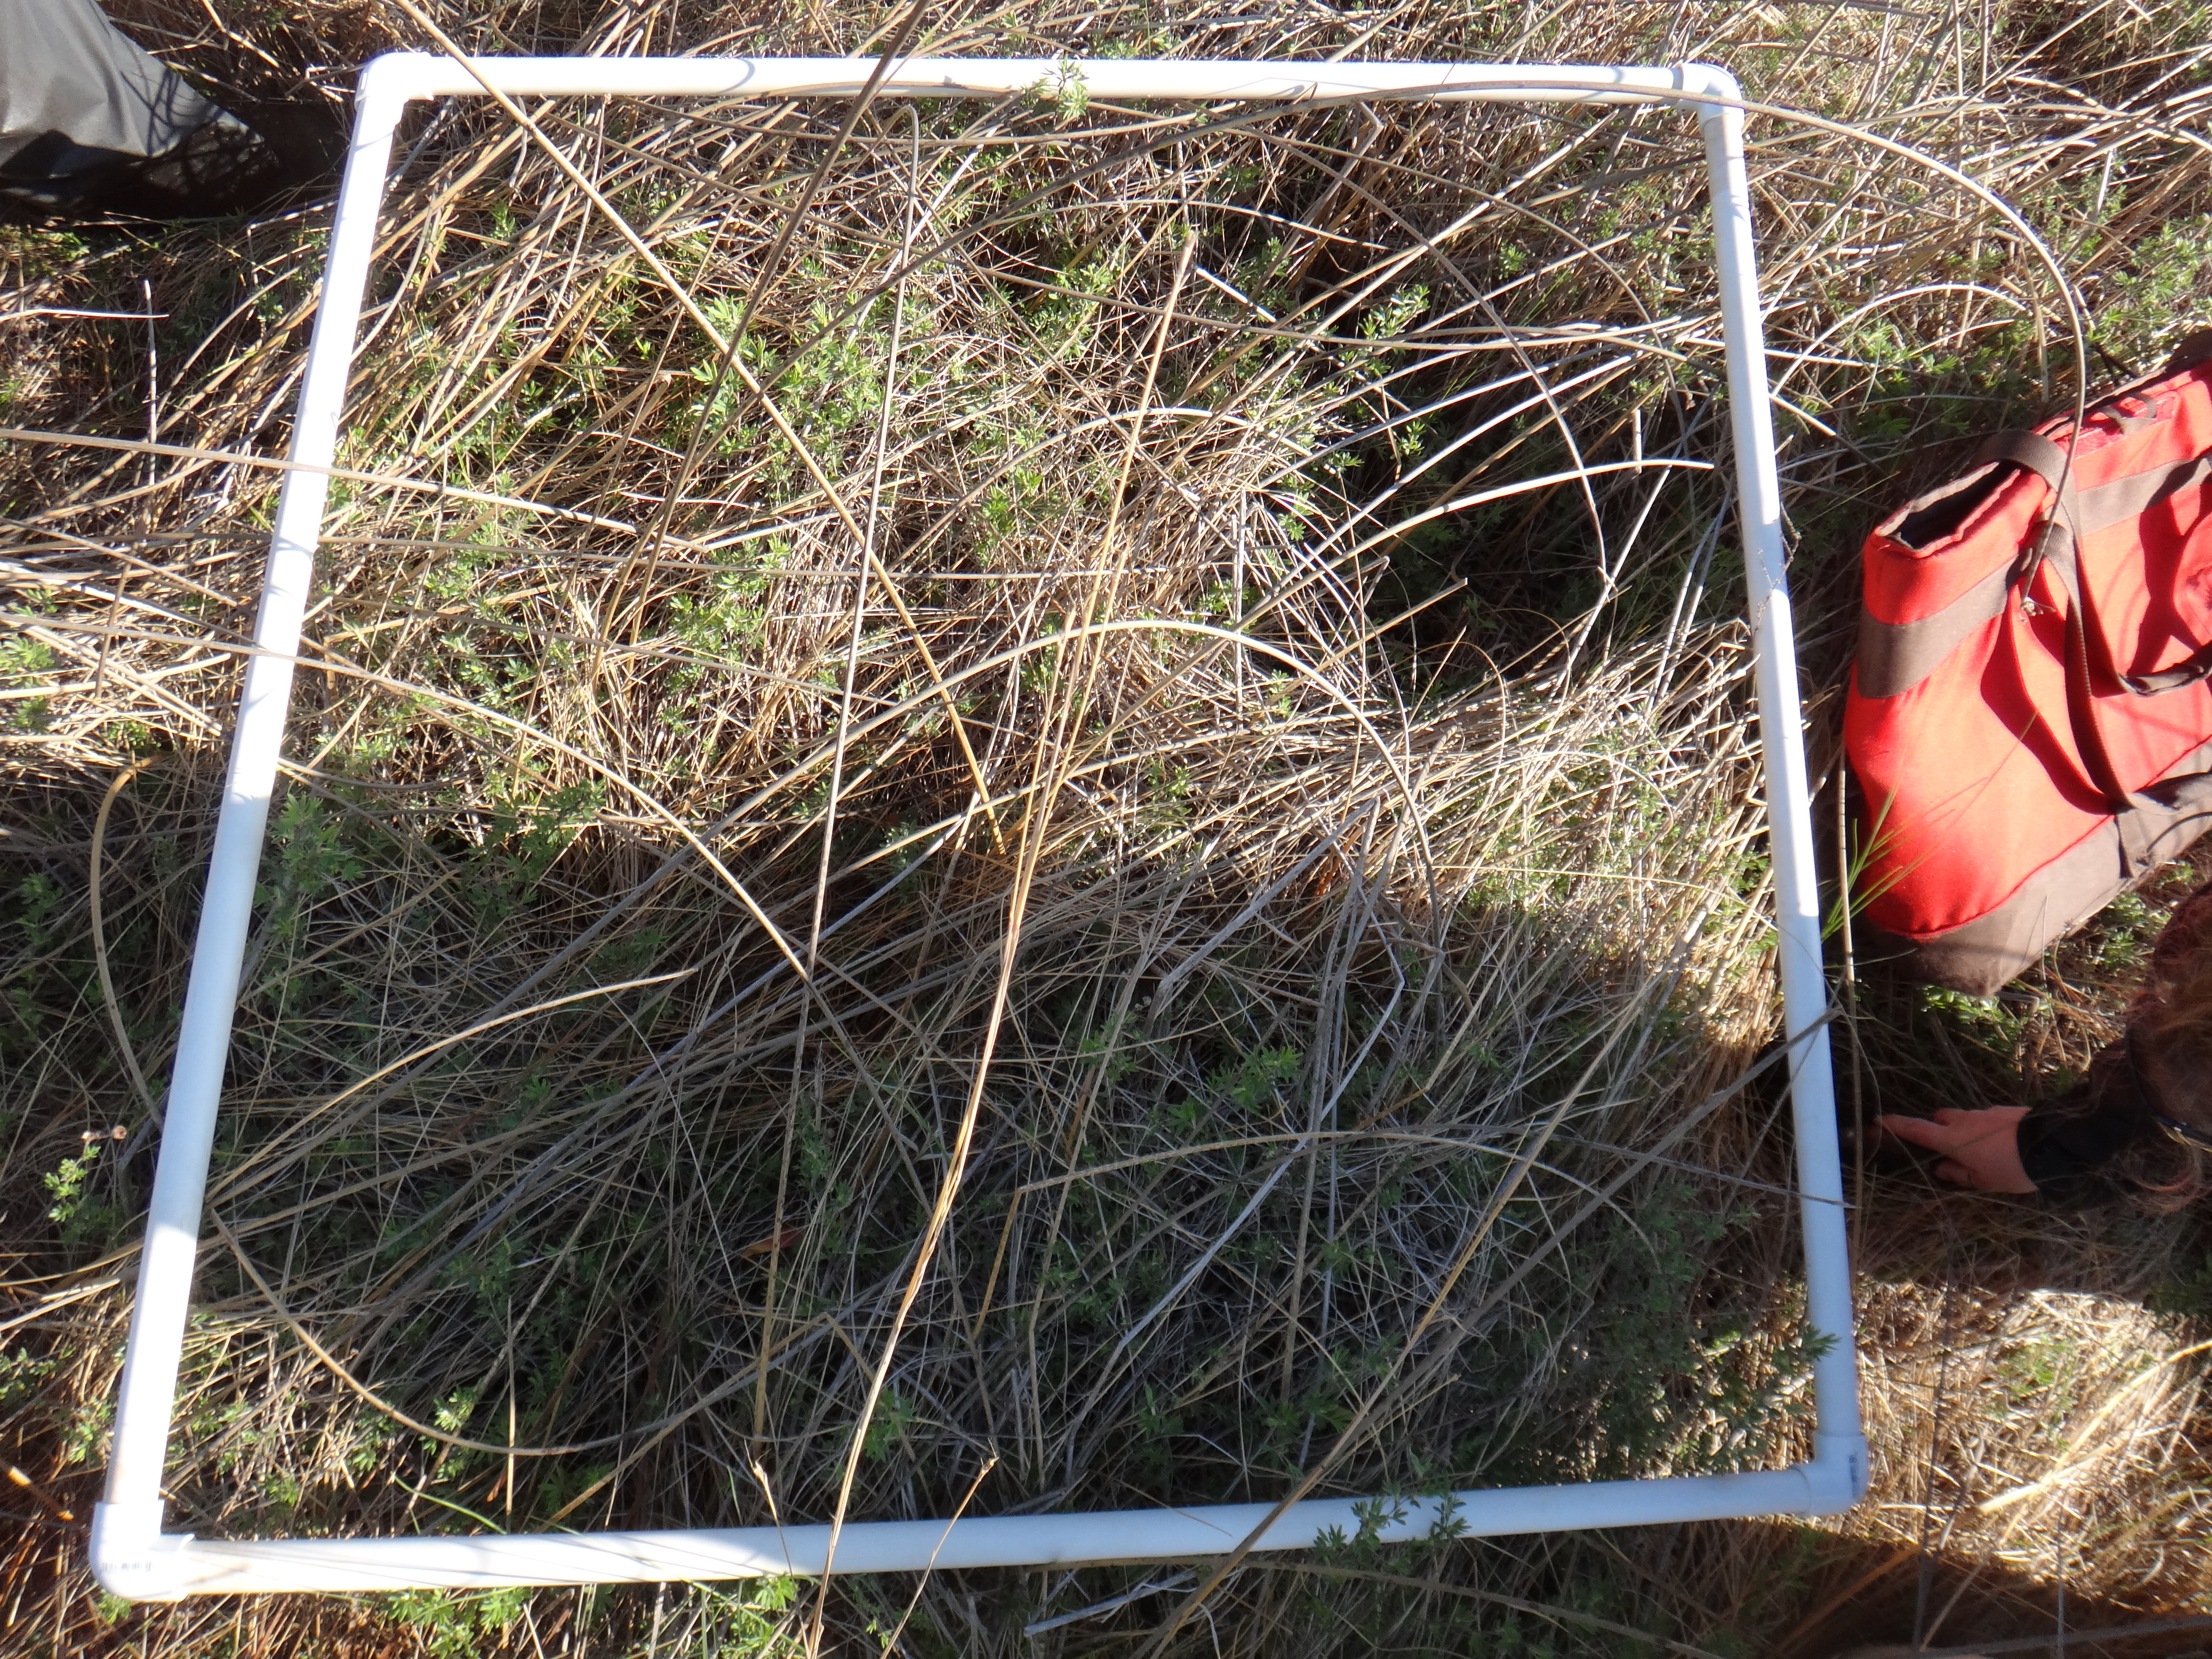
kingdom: Plantae
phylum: Tracheophyta
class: Liliopsida
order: Poales
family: Cyperaceae
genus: Cladium
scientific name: Cladium mariscoides
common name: Smooth sawgrass
